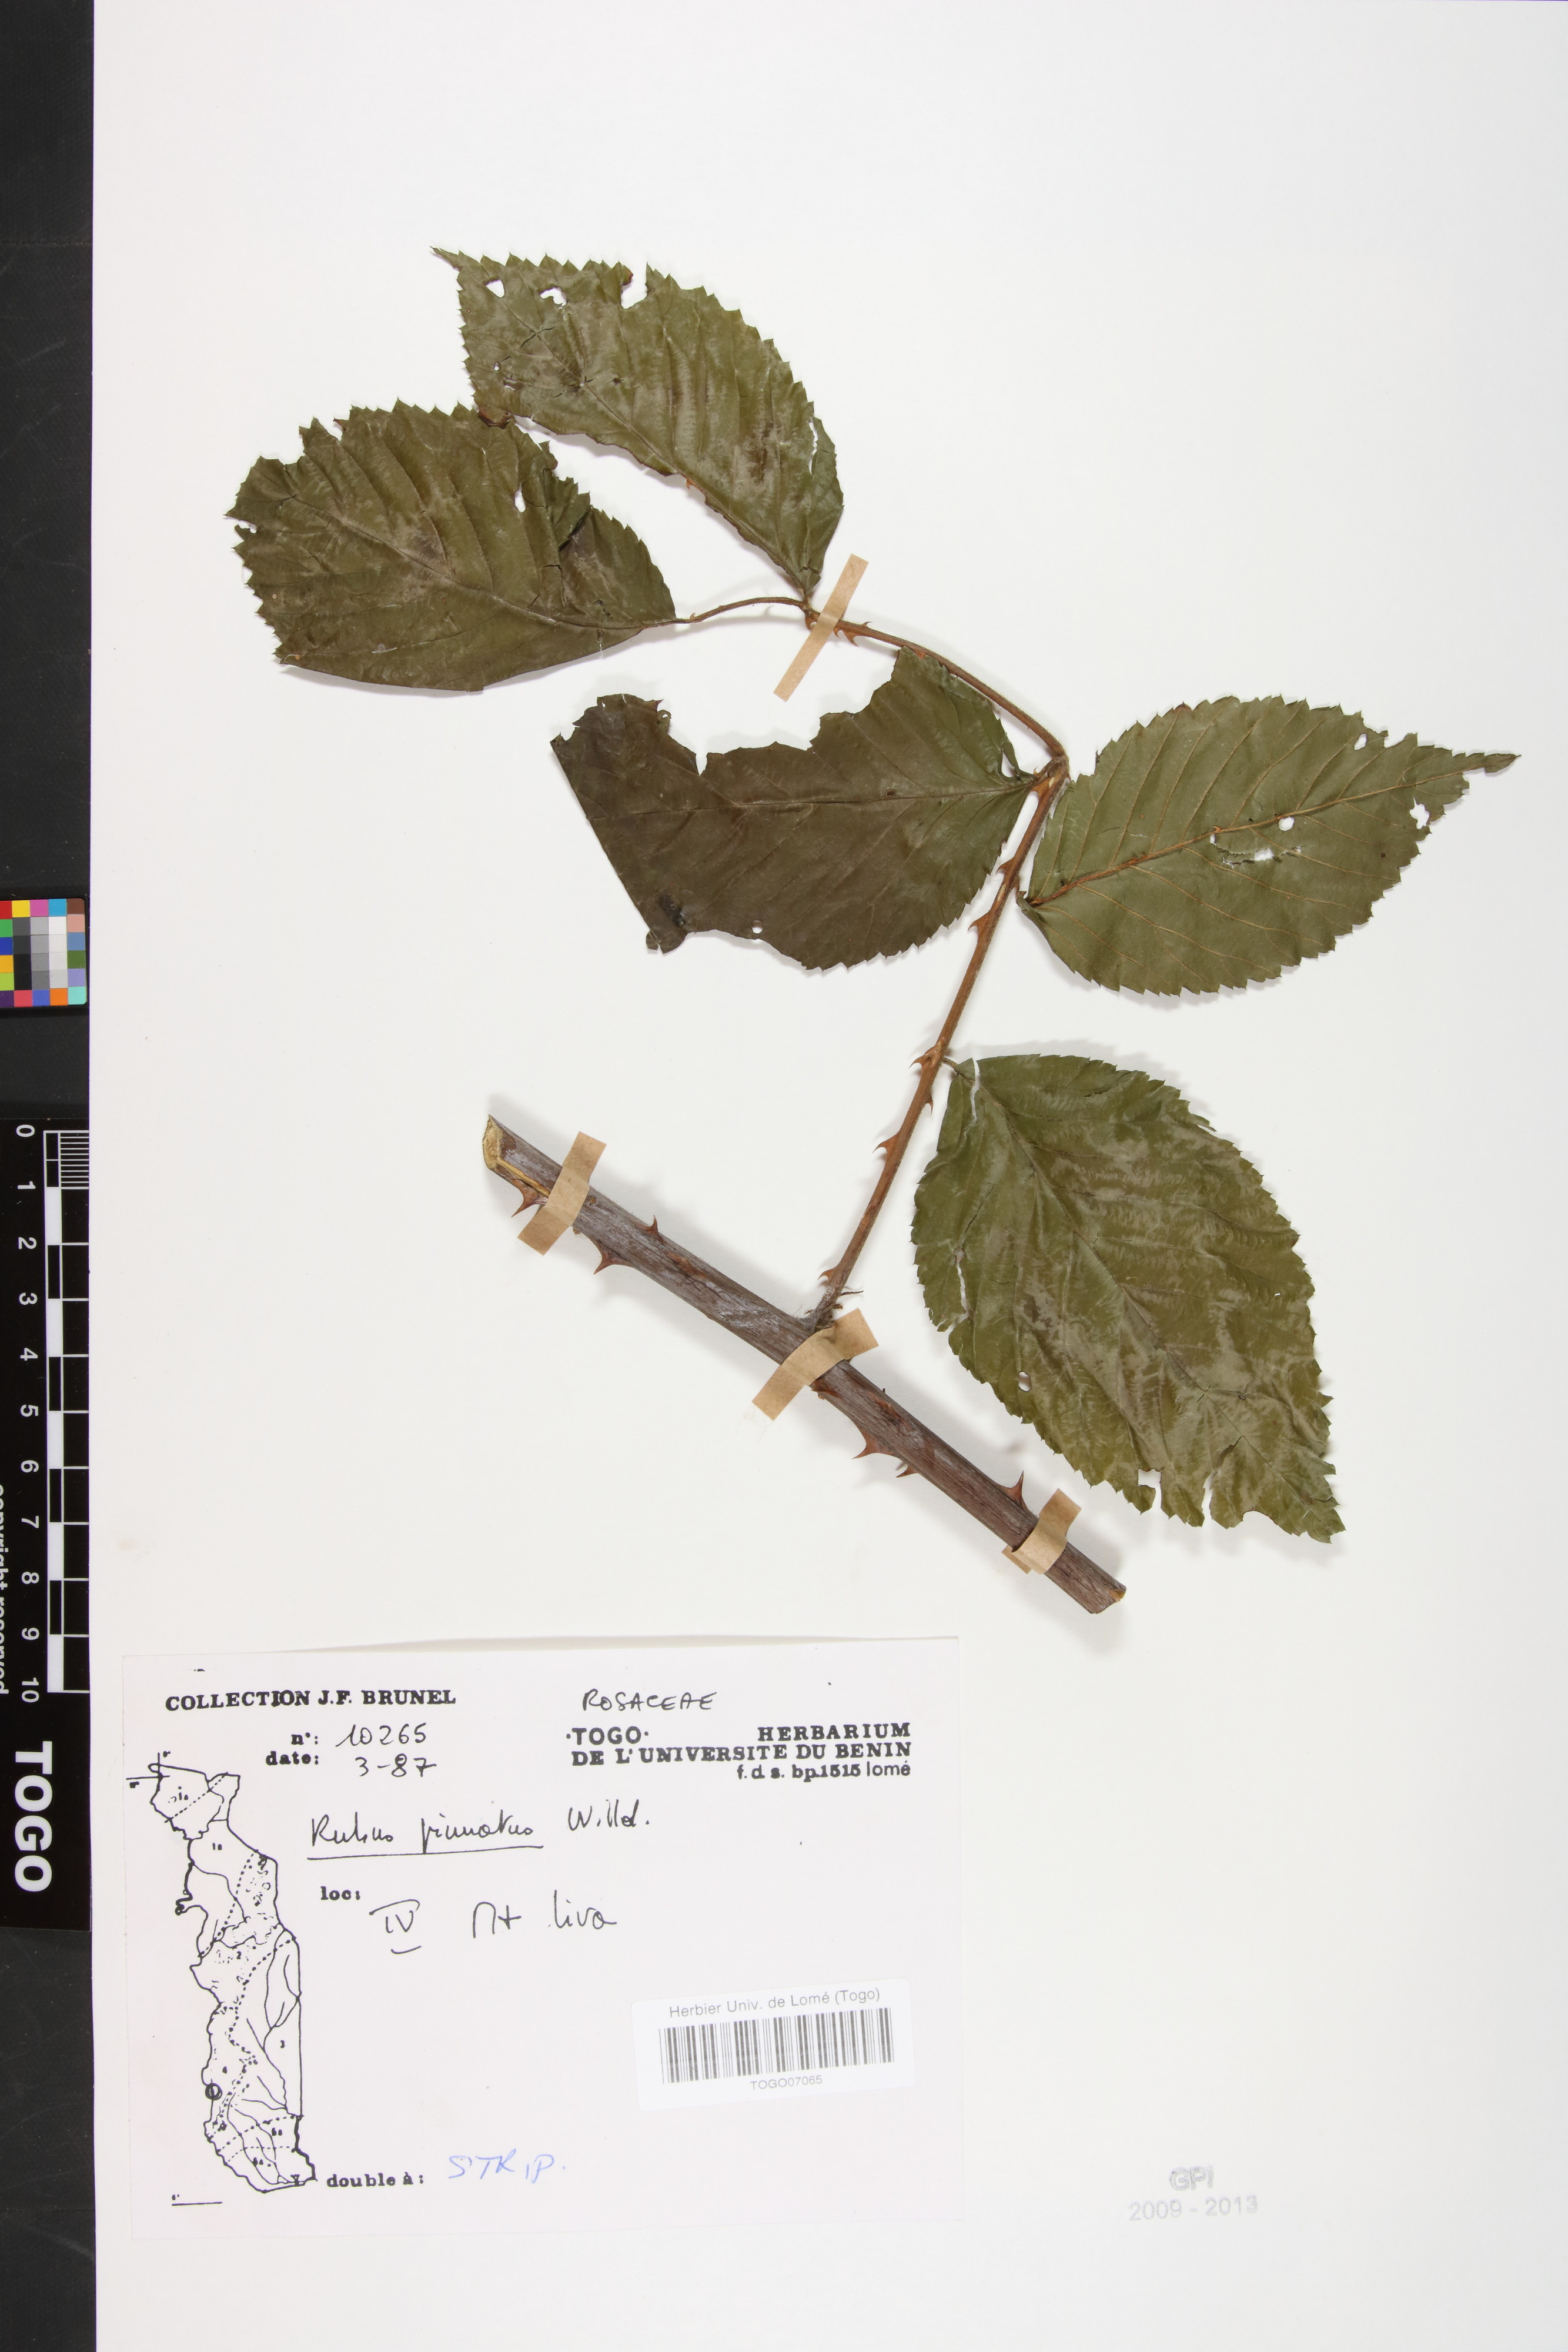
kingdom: Plantae
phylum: Tracheophyta
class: Magnoliopsida
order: Rosales
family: Rosaceae
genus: Rubus
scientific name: Rubus pinnatus
